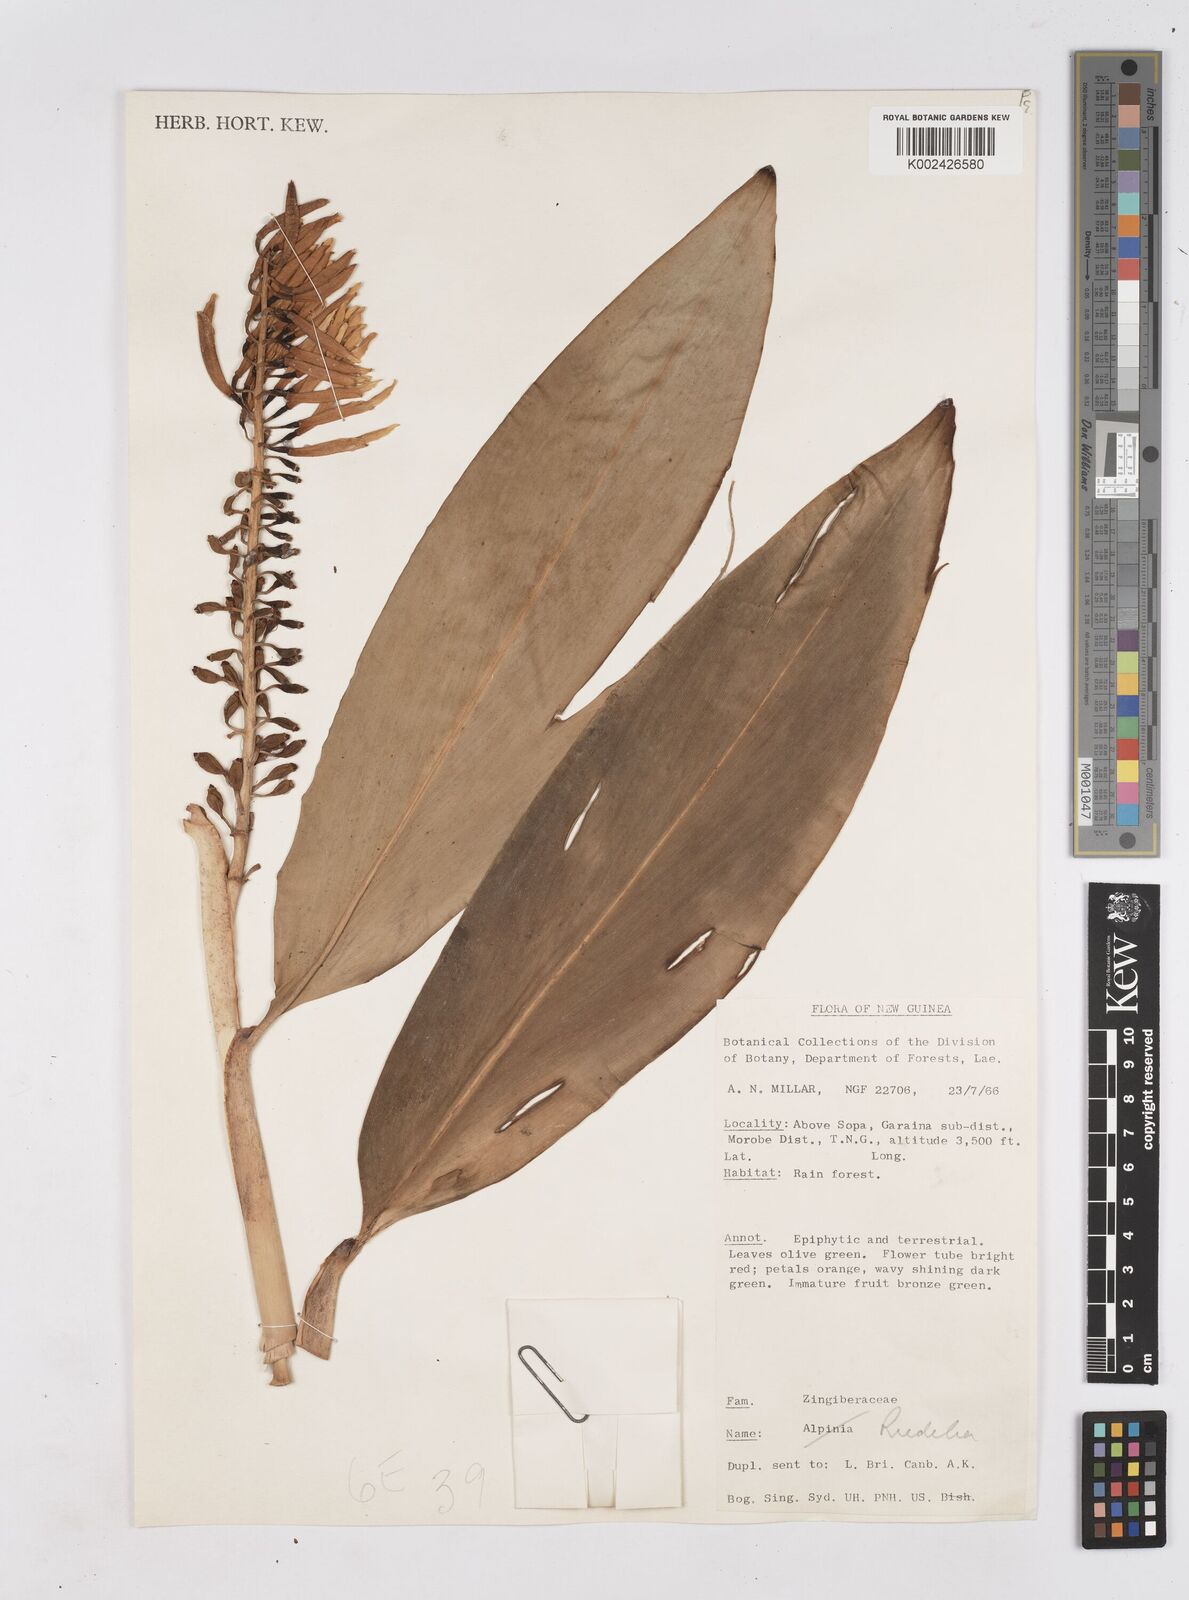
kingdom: Plantae
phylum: Tracheophyta
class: Liliopsida
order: Zingiberales
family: Zingiberaceae
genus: Riedelia
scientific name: Riedelia
